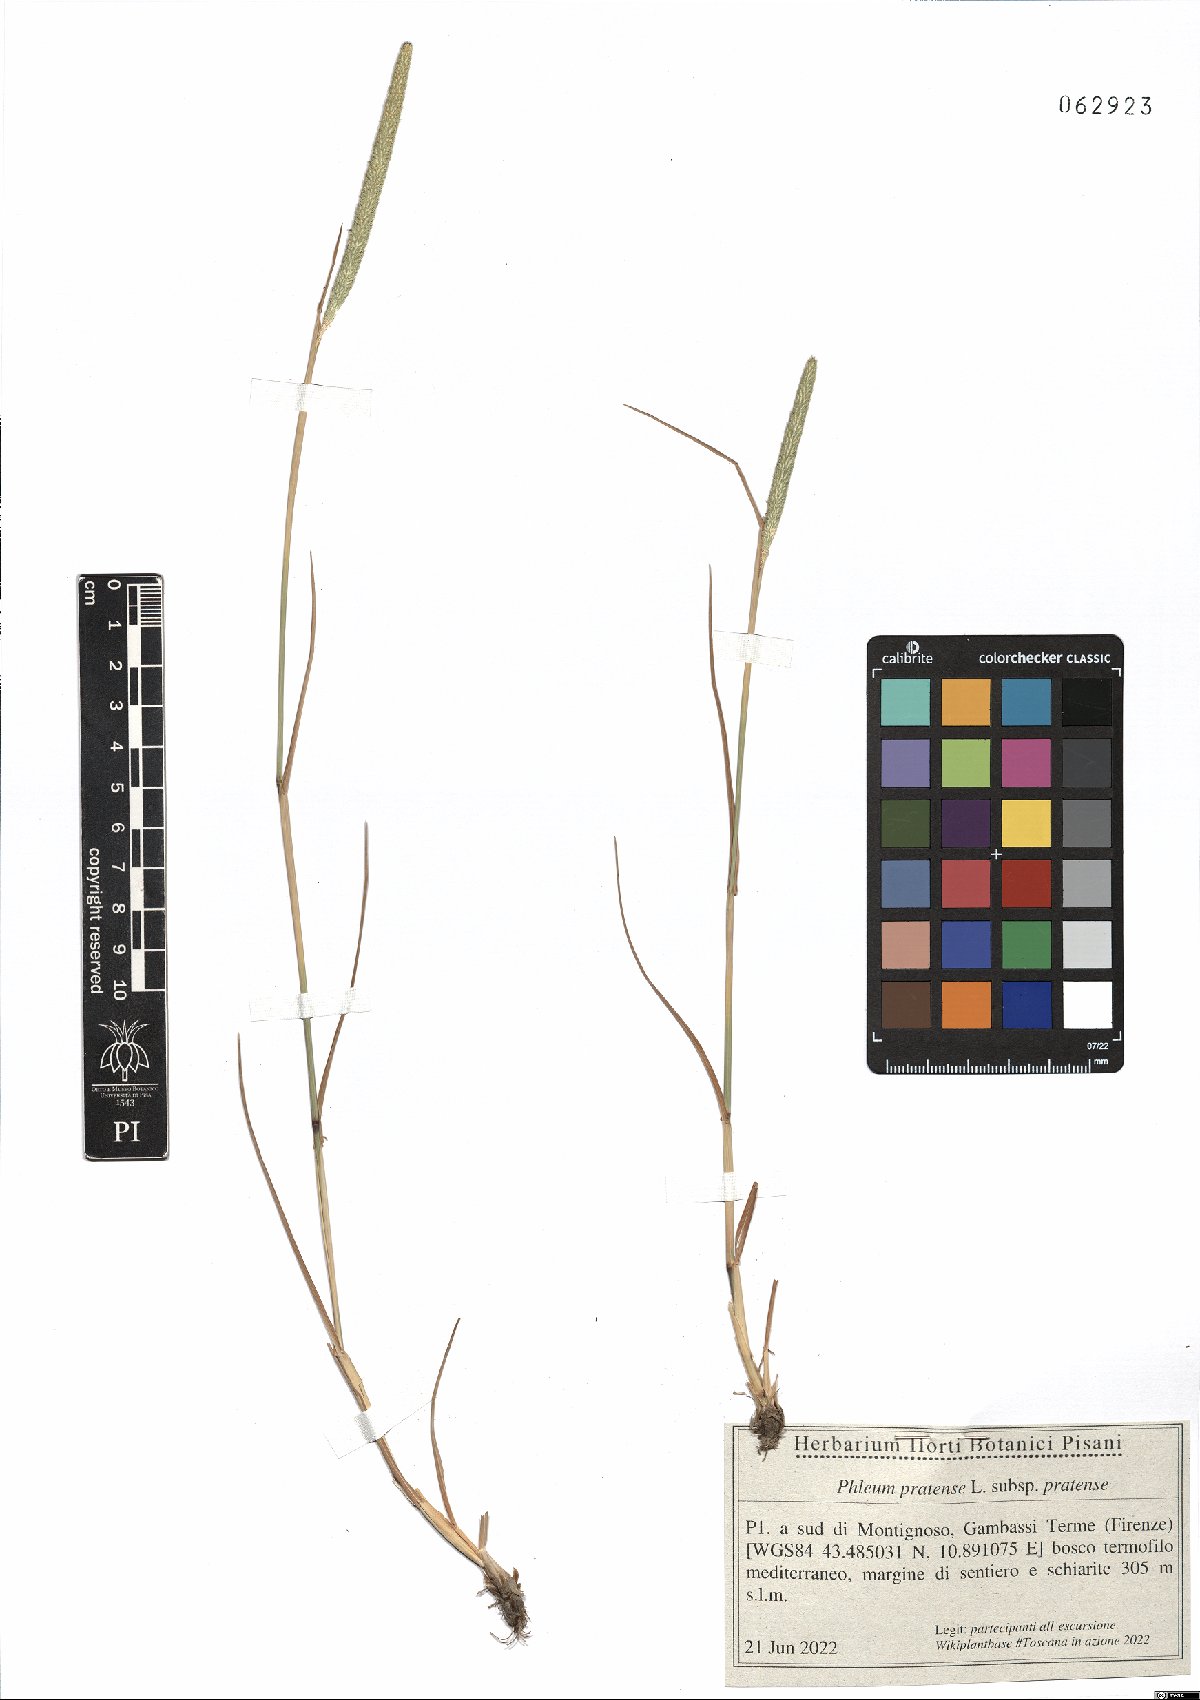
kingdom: Plantae
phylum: Tracheophyta
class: Liliopsida
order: Poales
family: Poaceae
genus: Phleum
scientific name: Phleum pratense
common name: Timothy grass
